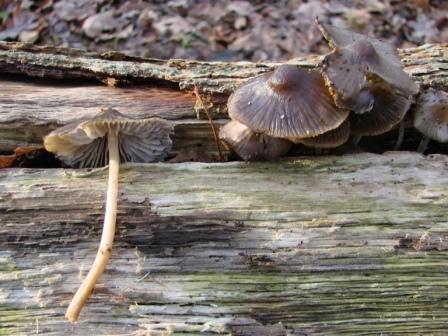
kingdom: Fungi
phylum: Basidiomycota
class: Agaricomycetes
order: Agaricales
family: Mycenaceae
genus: Mycena
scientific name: Mycena inclinata
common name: nikkende huesvamp
